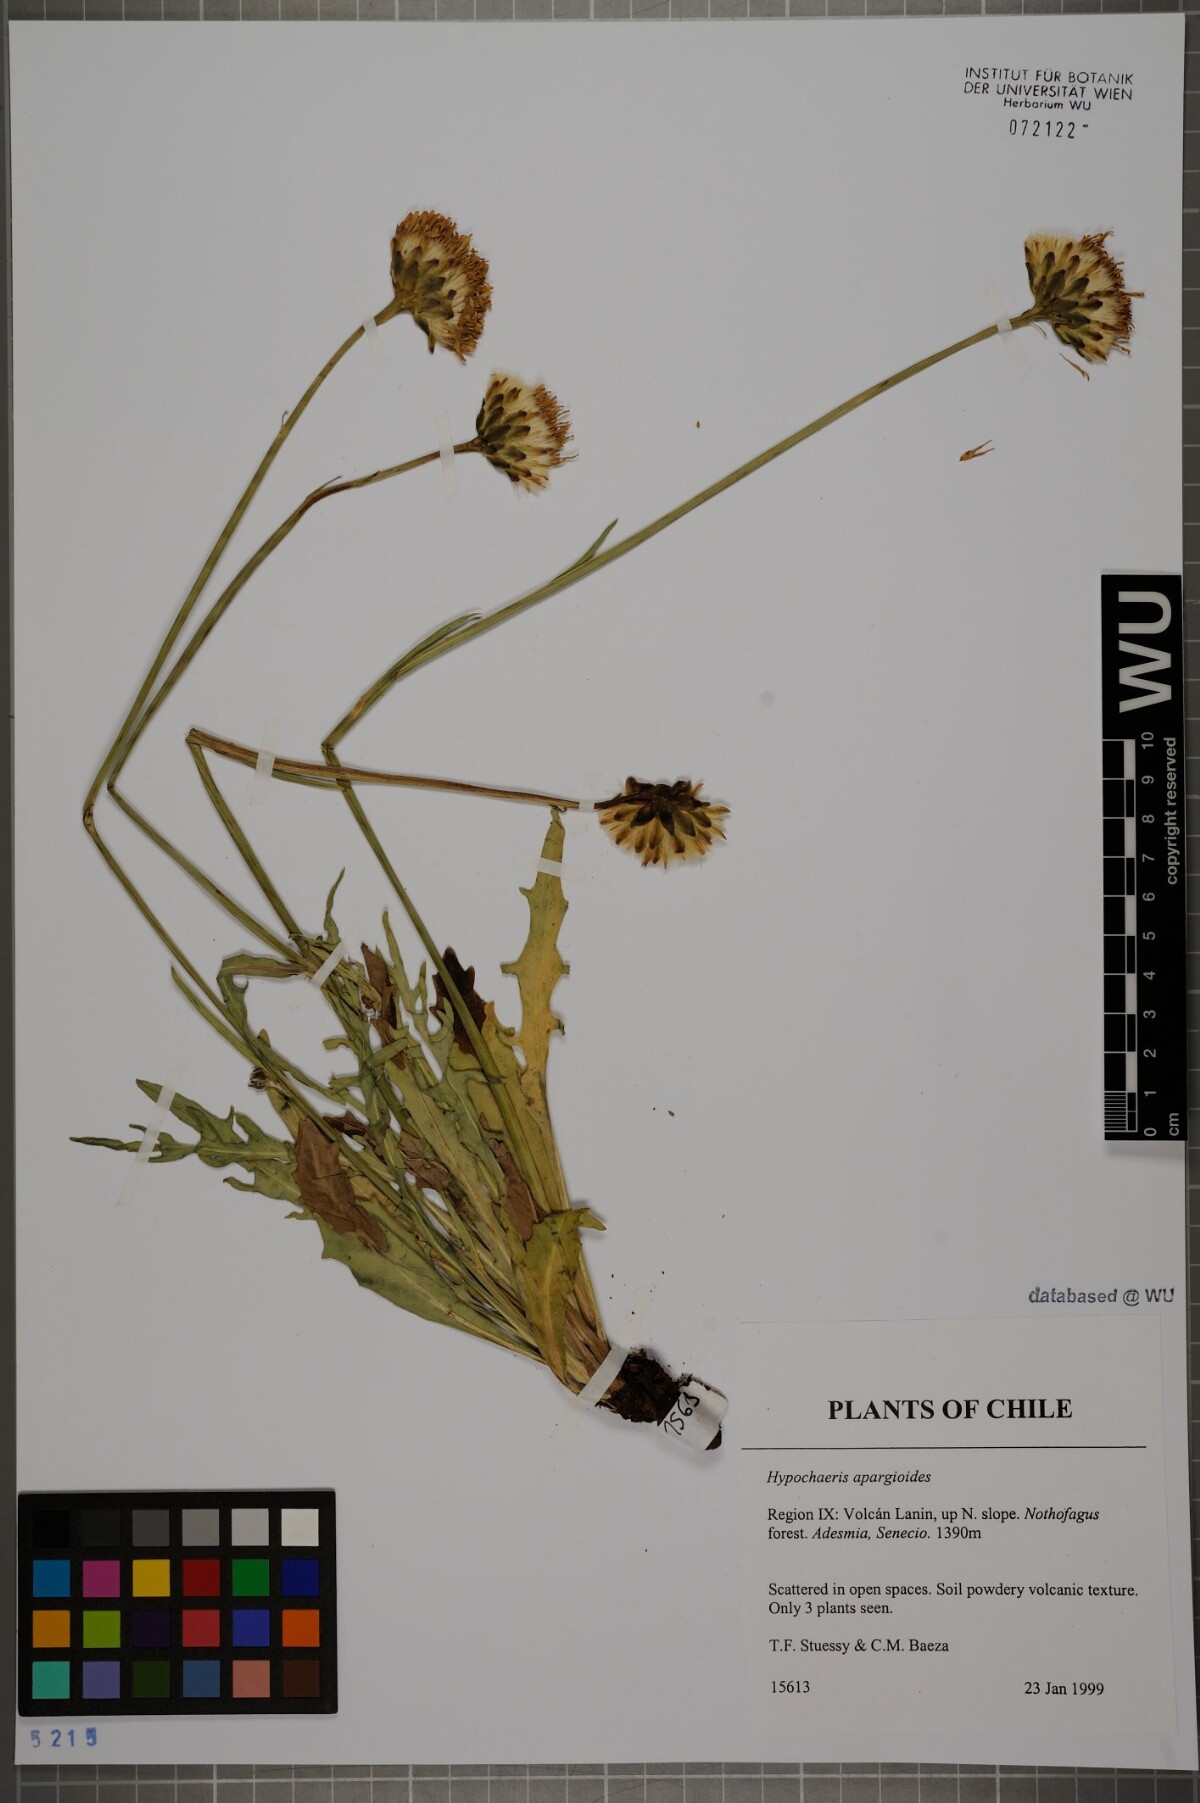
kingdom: Plantae
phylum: Tracheophyta
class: Magnoliopsida
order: Asterales
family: Asteraceae
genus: Hypochaeris
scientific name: Hypochaeris apargioides
